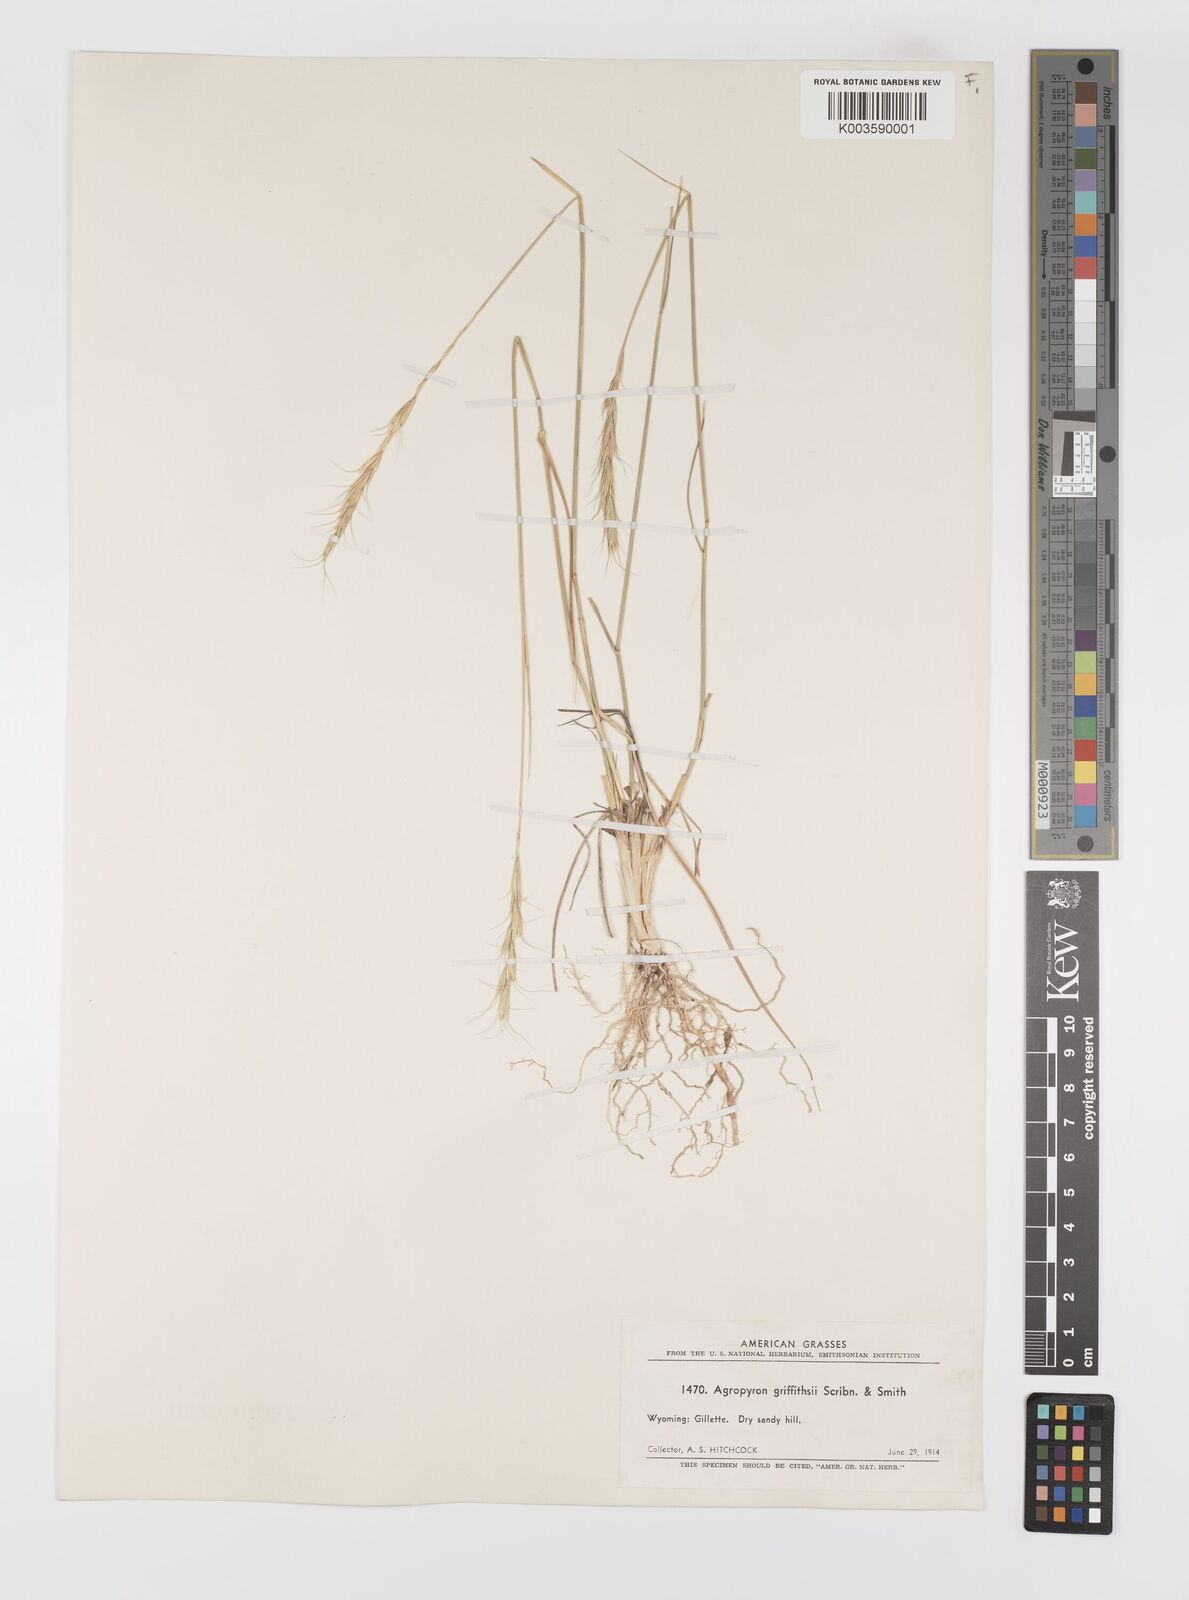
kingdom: Plantae
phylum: Tracheophyta
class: Liliopsida
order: Poales
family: Poaceae
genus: Elymus
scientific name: Elymus albicans
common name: Montana wheatgrass
